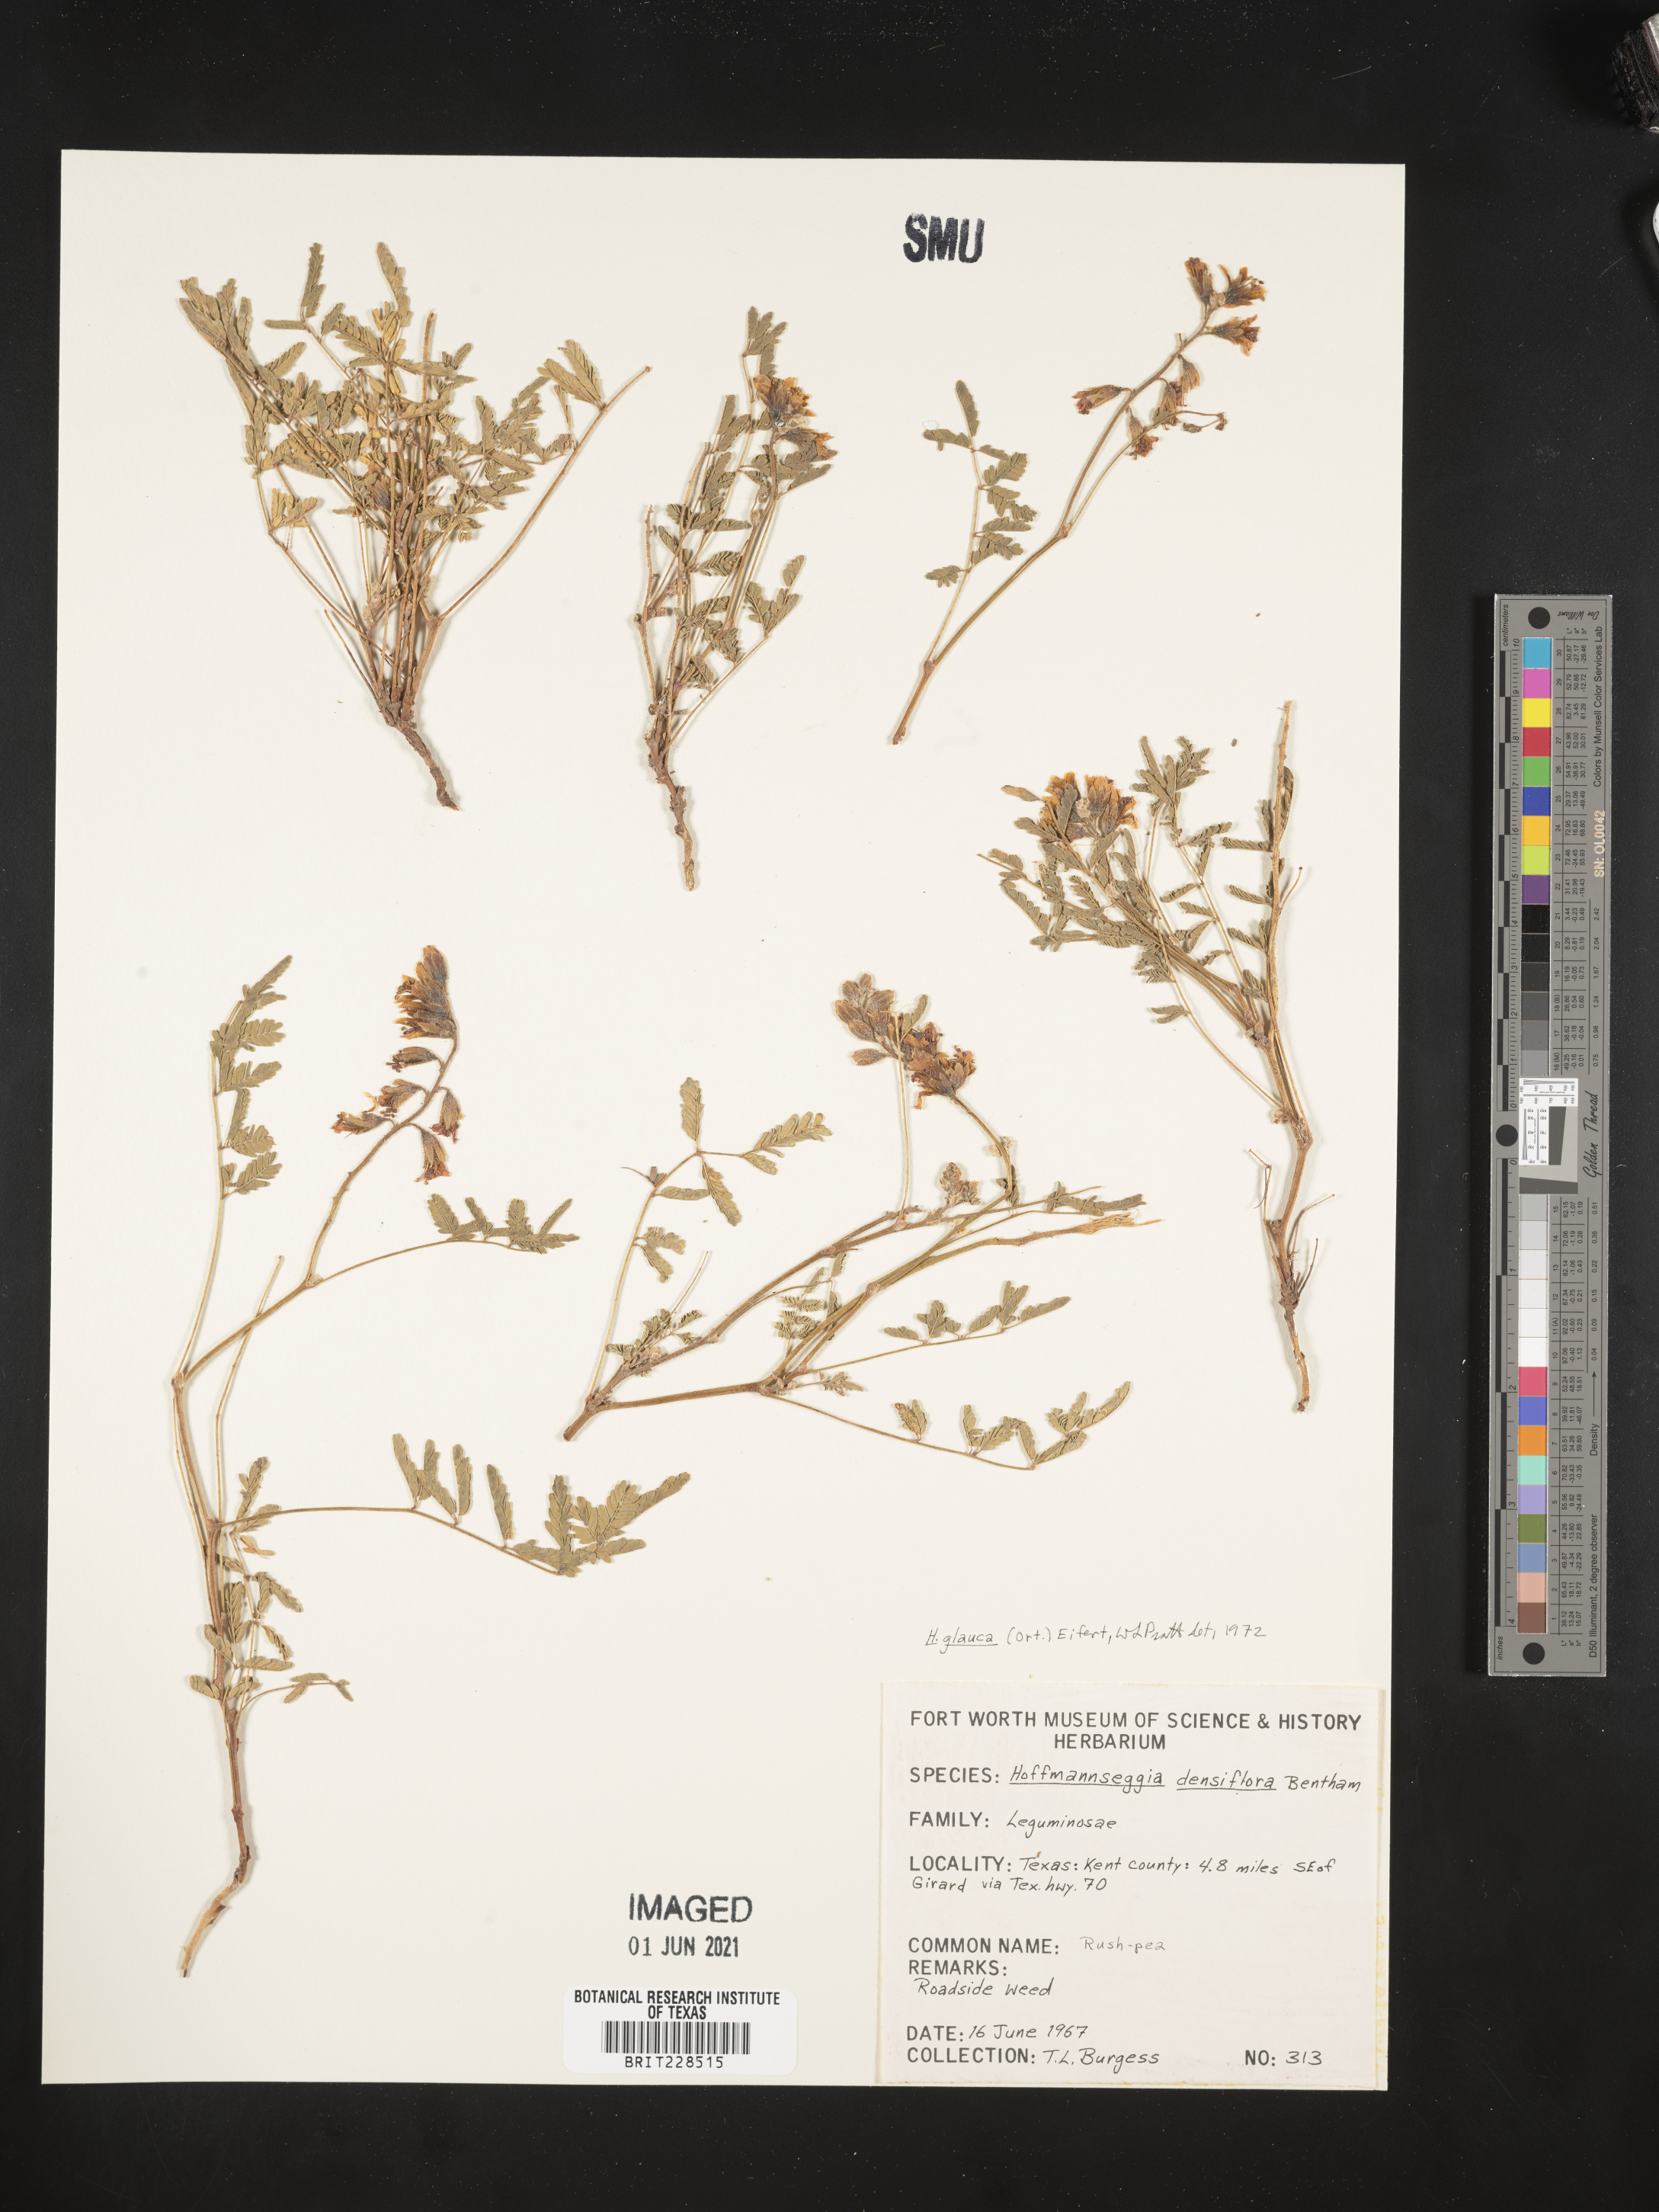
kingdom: Plantae
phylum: Tracheophyta
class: Magnoliopsida
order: Fabales
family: Fabaceae
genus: Hoffmannseggia
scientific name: Hoffmannseggia glauca
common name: Pignut
